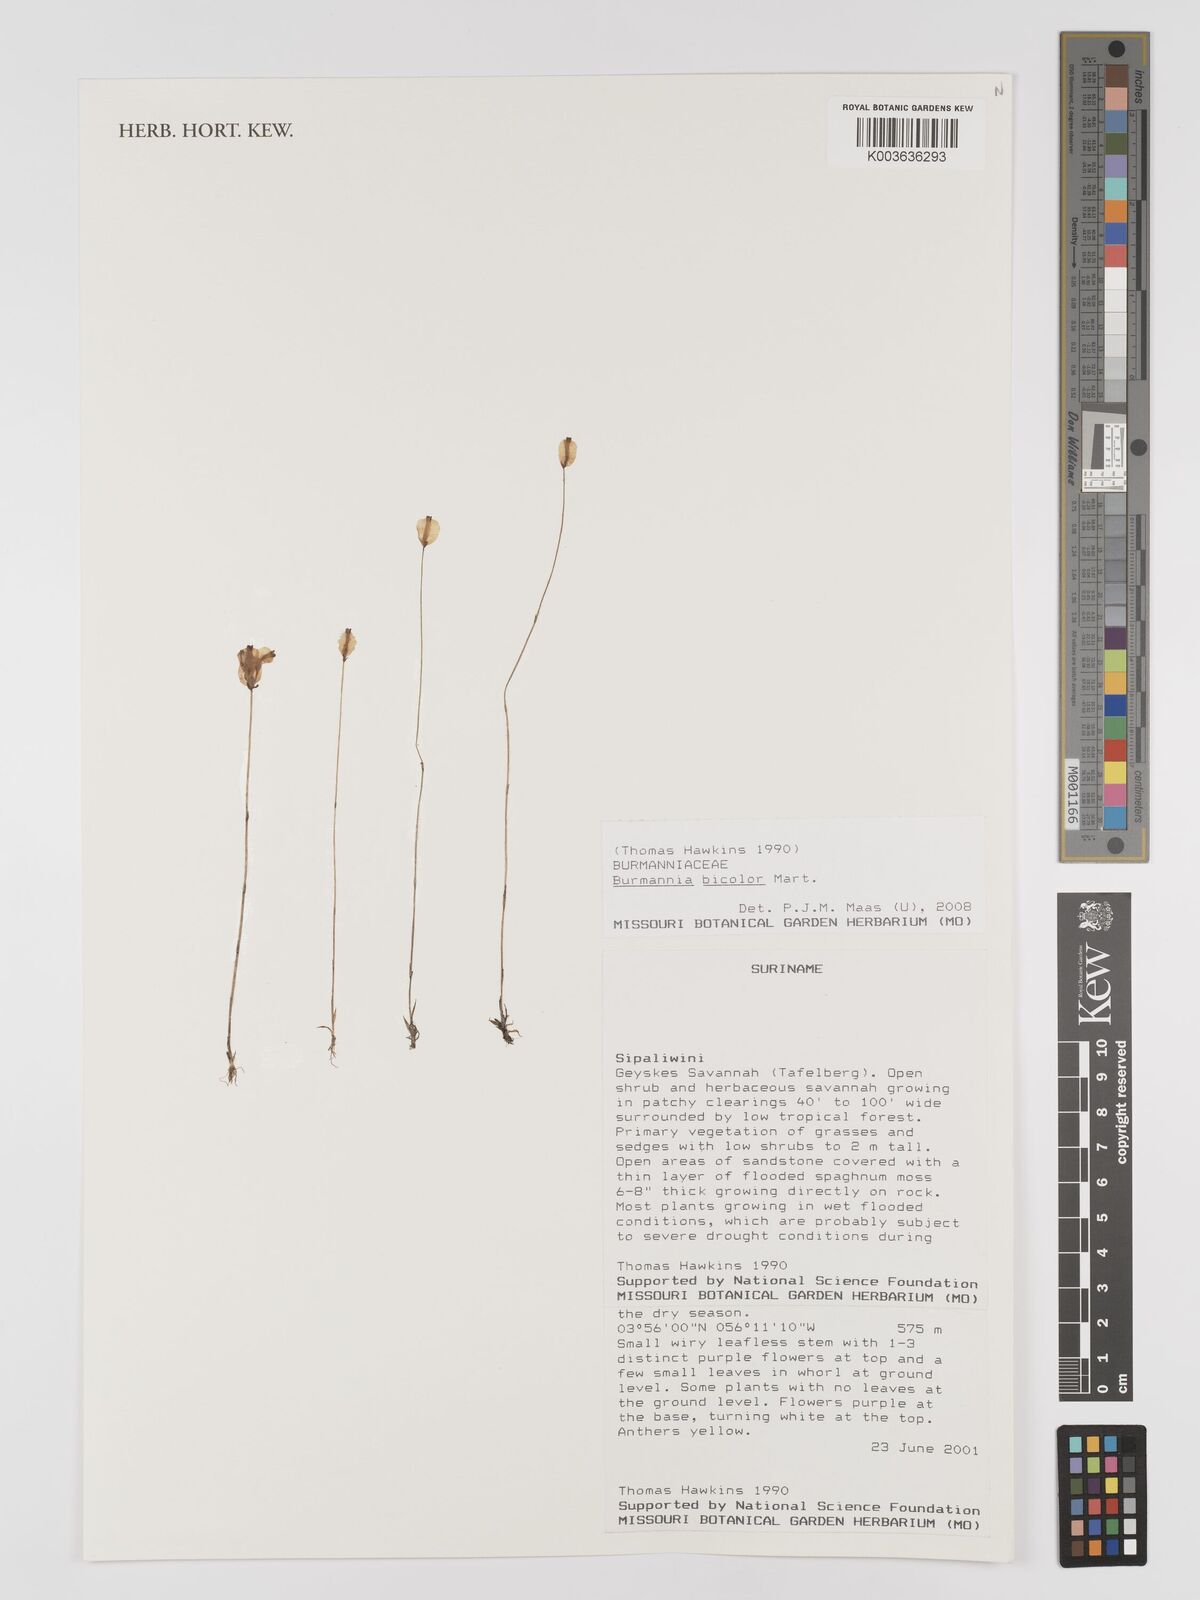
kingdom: Plantae
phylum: Tracheophyta
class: Liliopsida
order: Dioscoreales
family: Burmanniaceae
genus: Burmannia
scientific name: Burmannia bicolor
